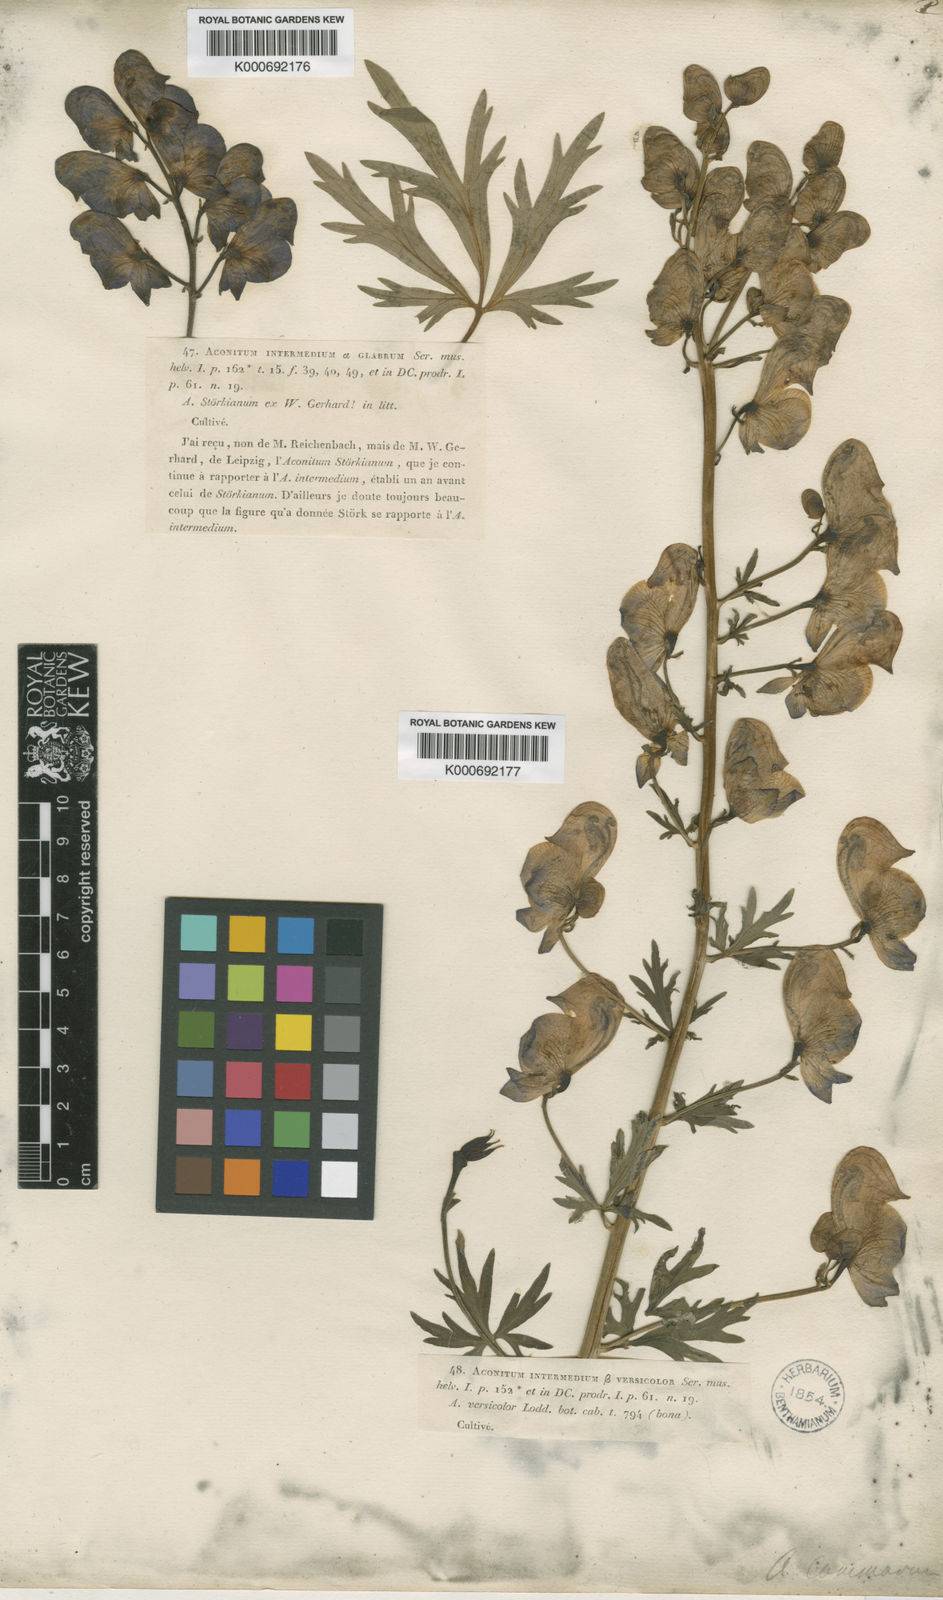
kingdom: Plantae
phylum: Tracheophyta
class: Magnoliopsida
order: Ranunculales
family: Ranunculaceae
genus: Aconitum
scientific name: Aconitum variegatum
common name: Manchurian monkshood
